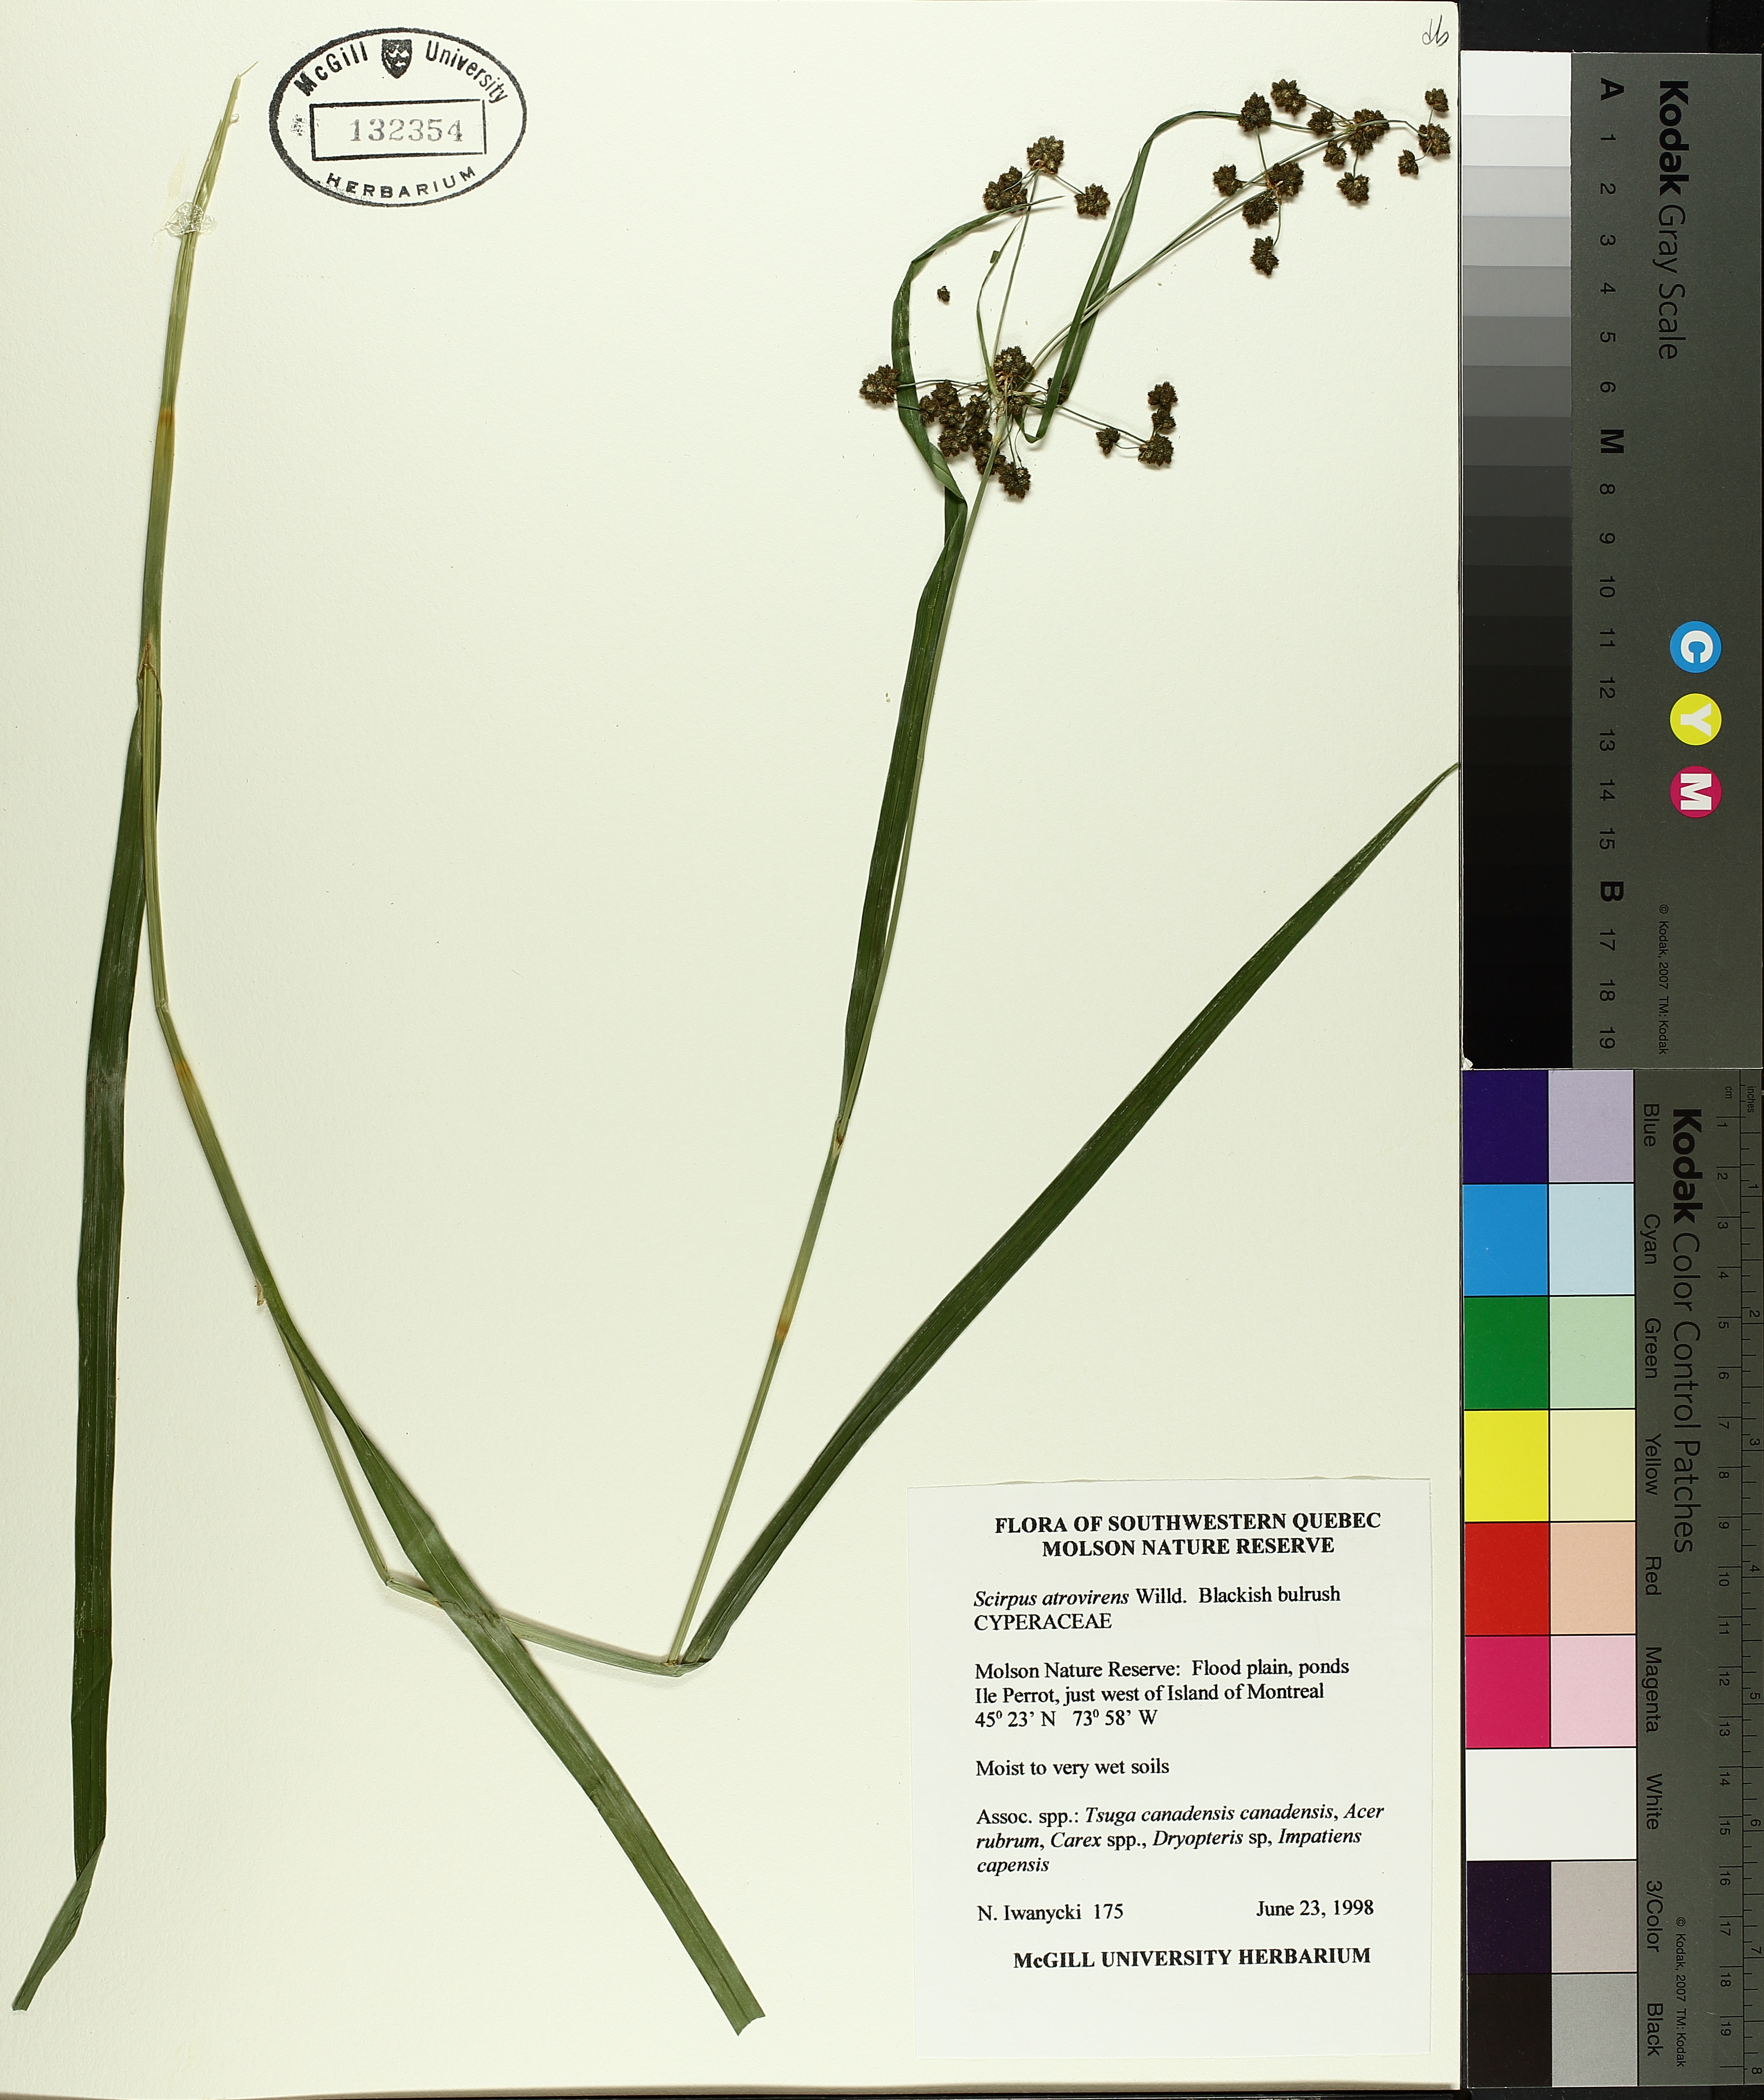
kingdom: Plantae
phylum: Tracheophyta
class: Liliopsida
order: Poales
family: Cyperaceae
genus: Scirpus
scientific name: Scirpus atrovirens
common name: Black bulrush
